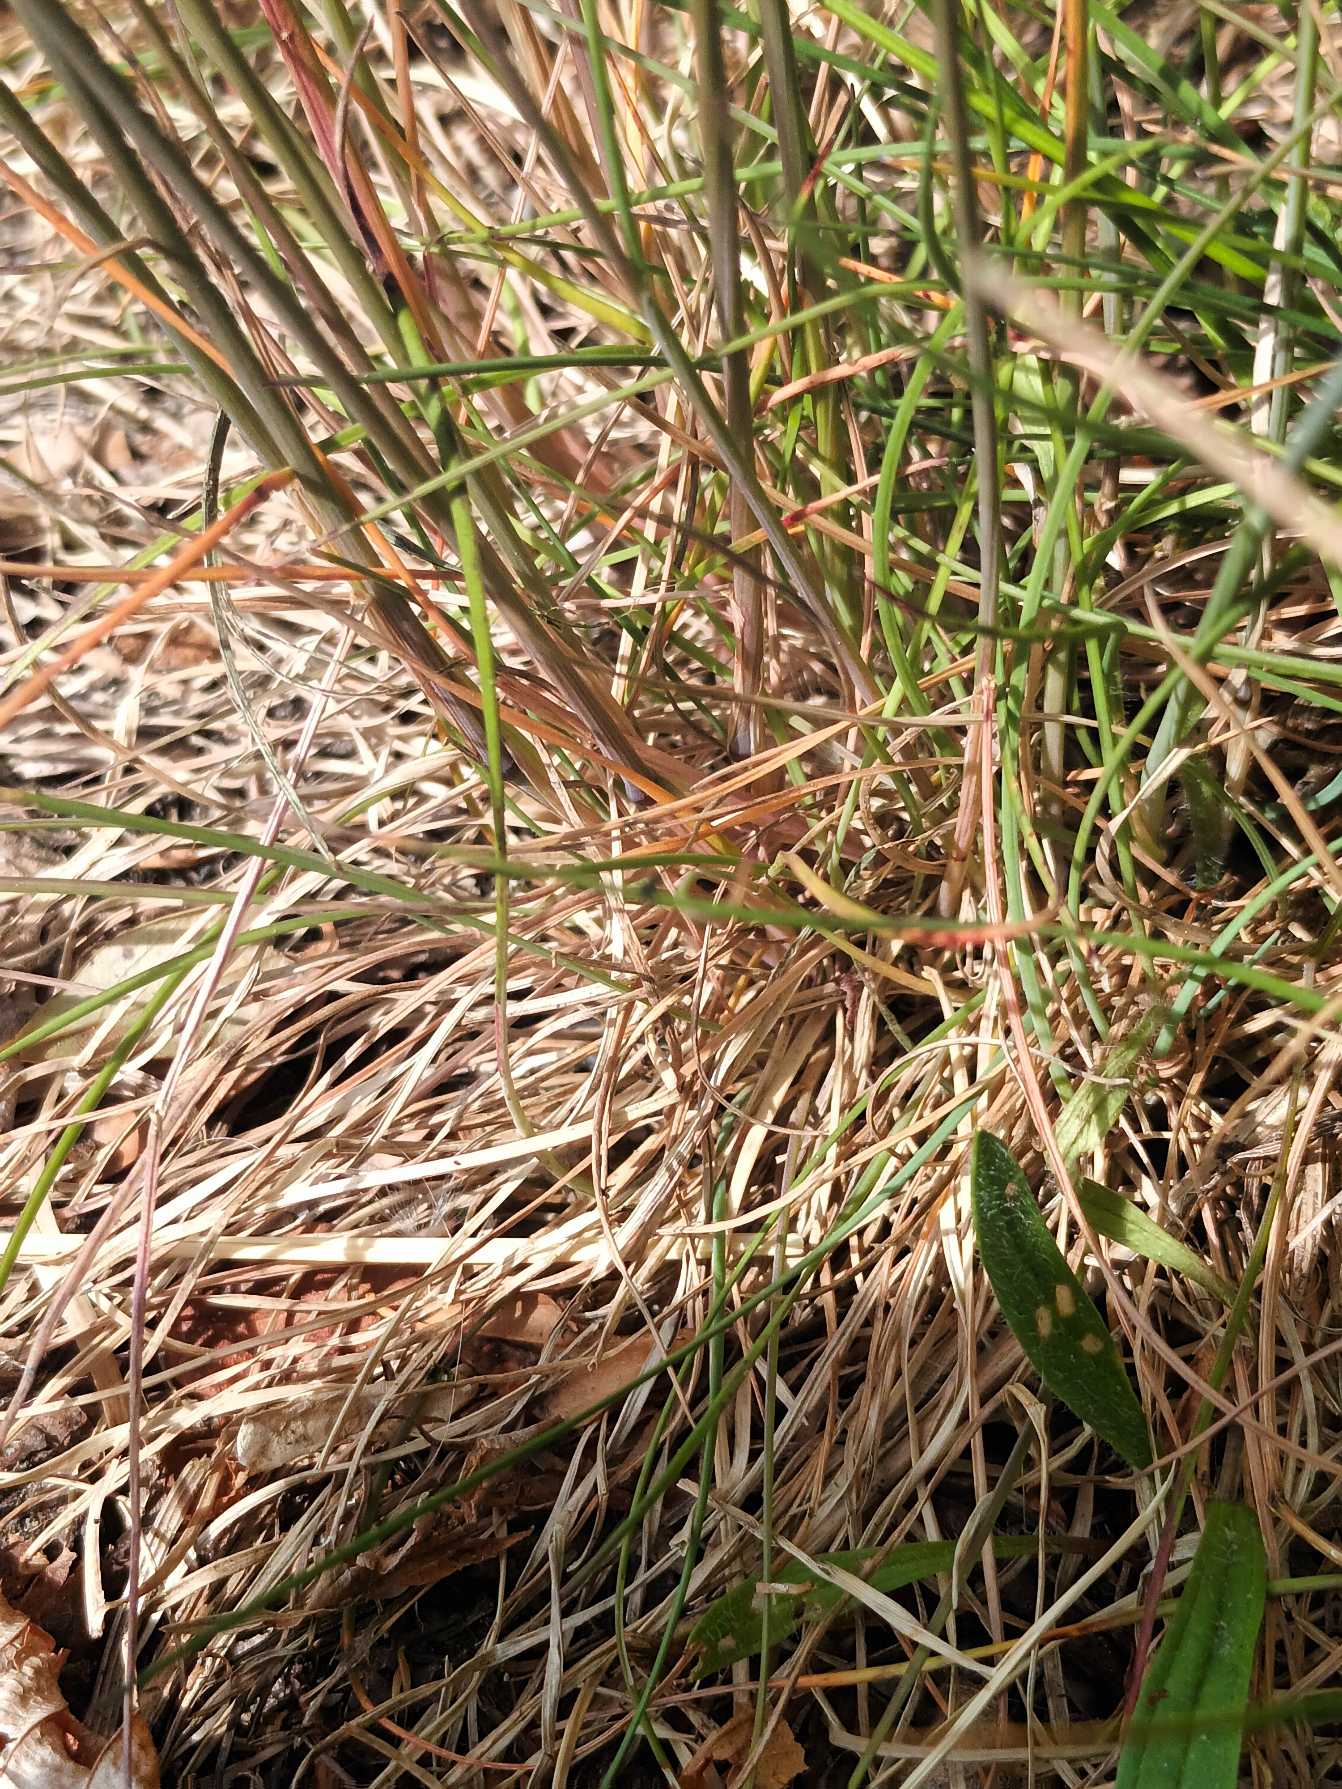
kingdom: Plantae
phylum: Tracheophyta
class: Liliopsida
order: Poales
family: Poaceae
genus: Festuca
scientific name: Festuca trachyphylla
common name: Bakke-svingel
